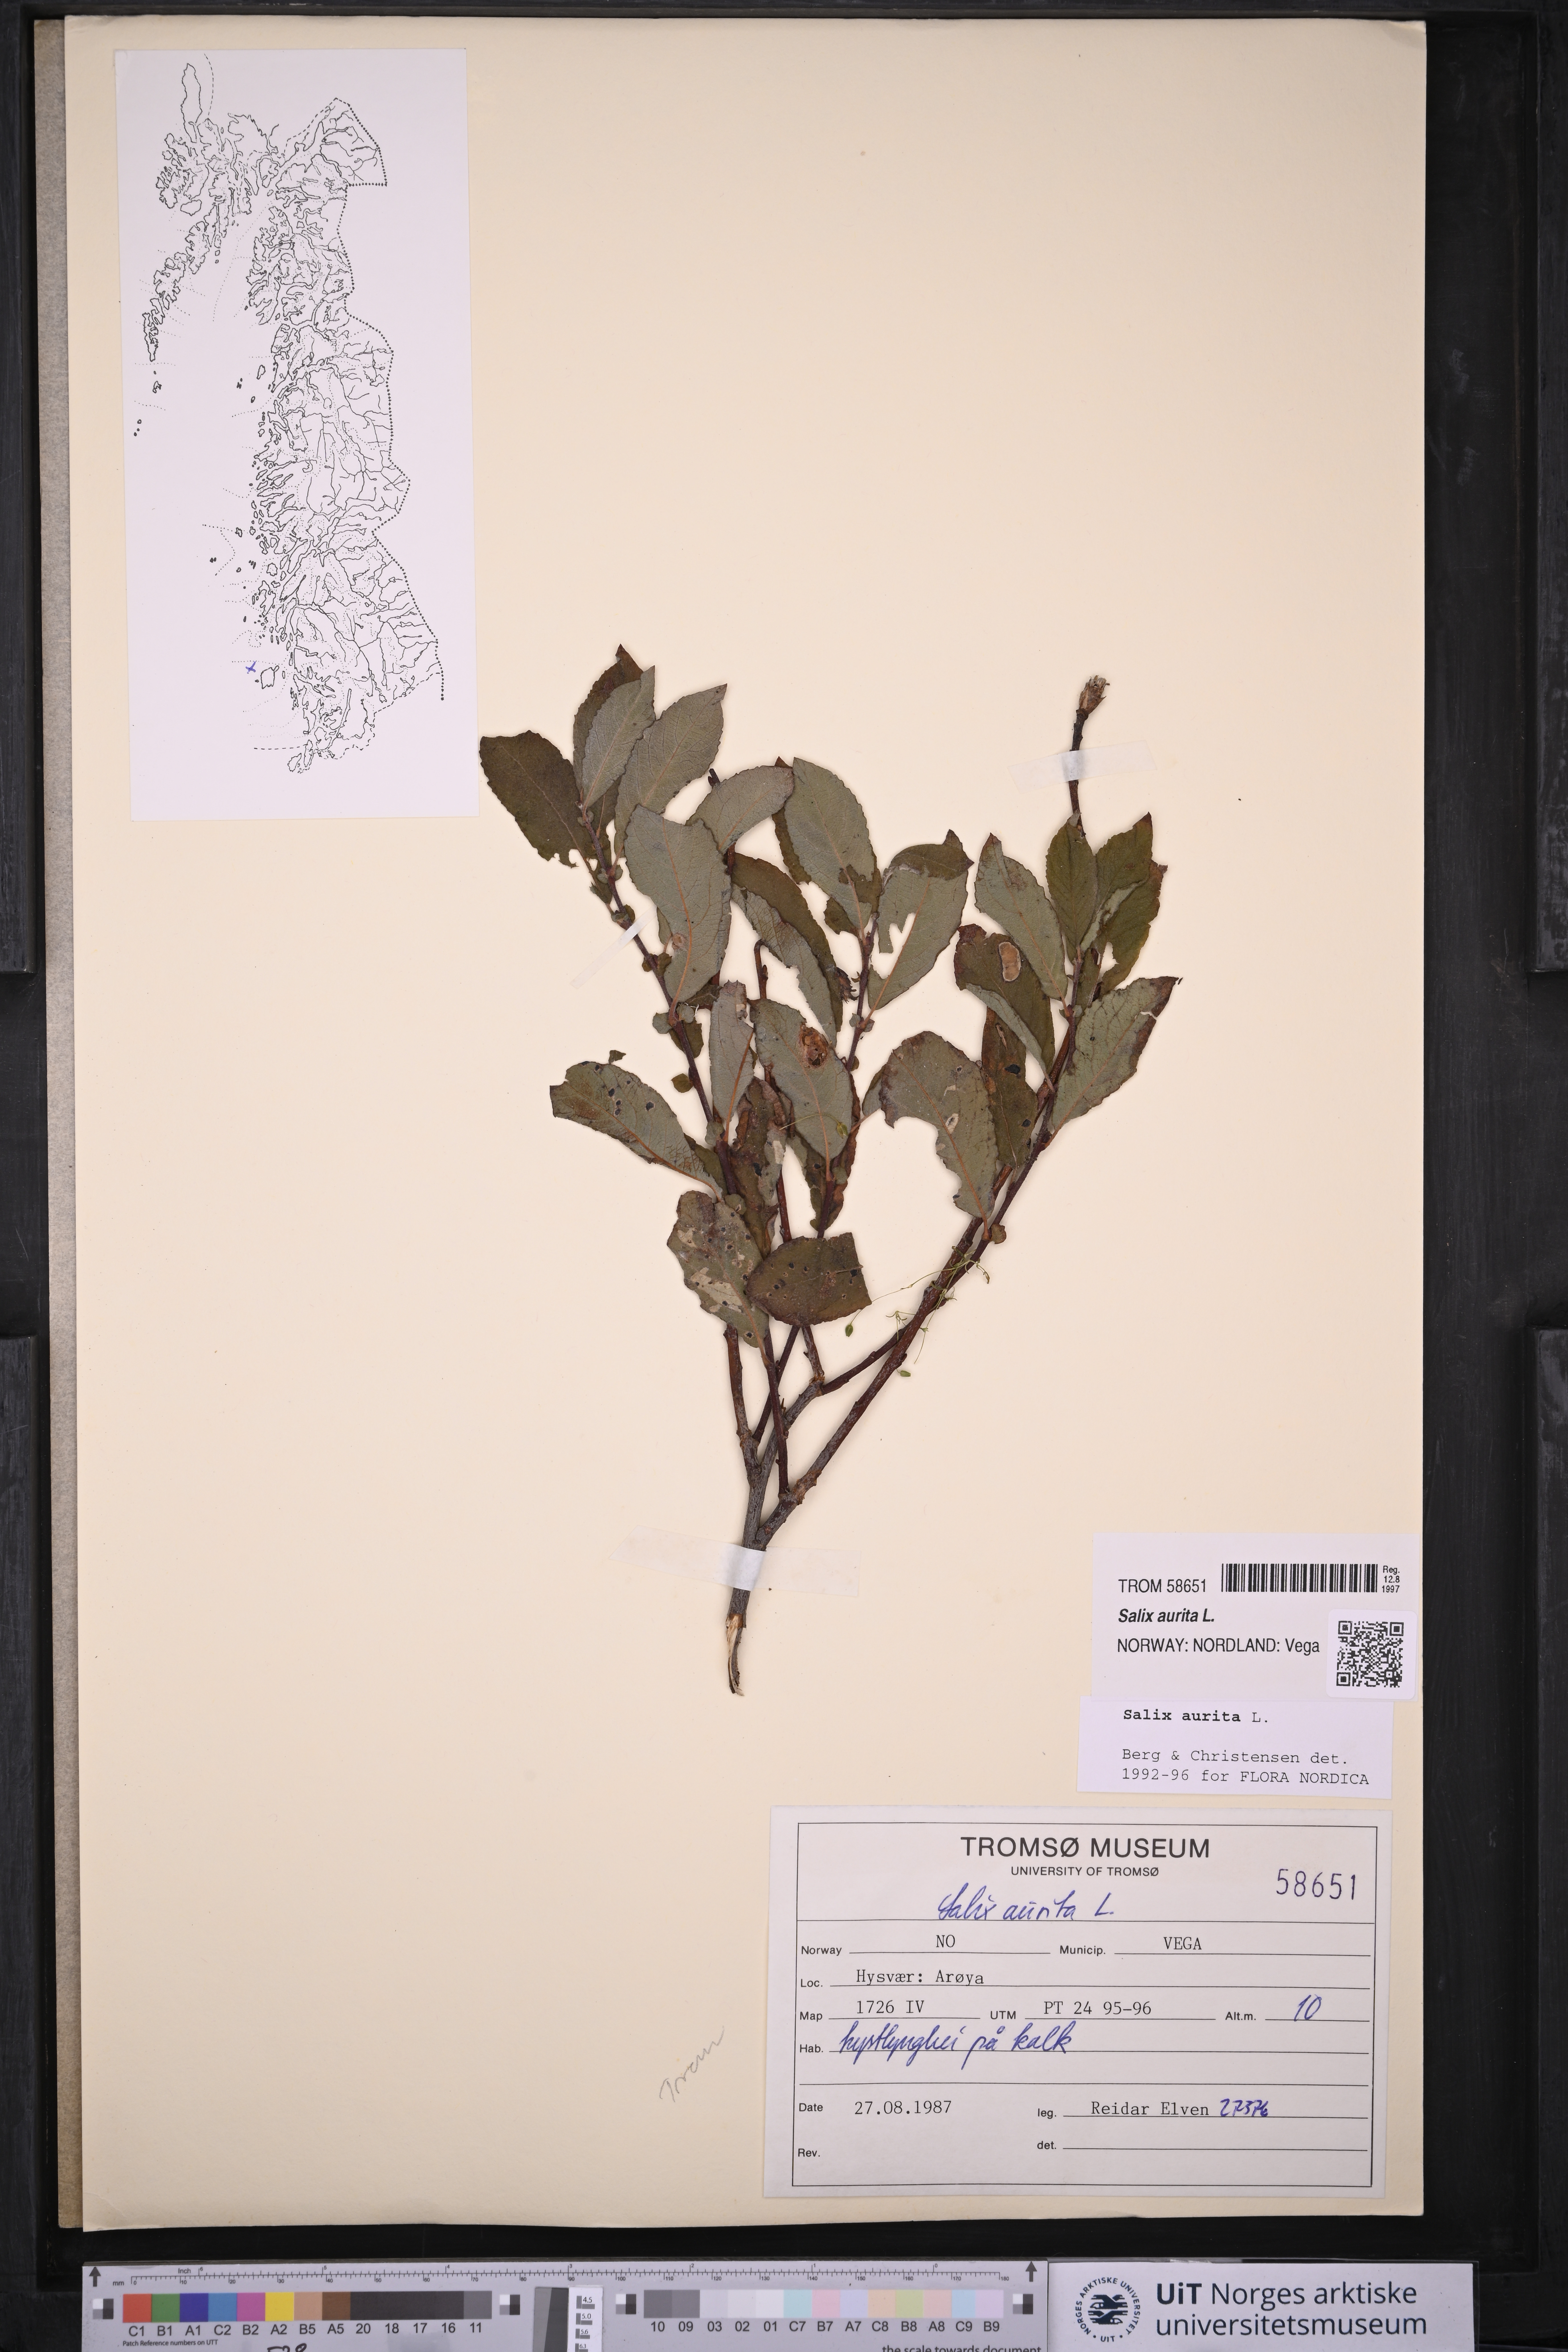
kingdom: Plantae
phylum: Tracheophyta
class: Magnoliopsida
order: Malpighiales
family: Salicaceae
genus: Salix
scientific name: Salix aurita
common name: Eared willow
